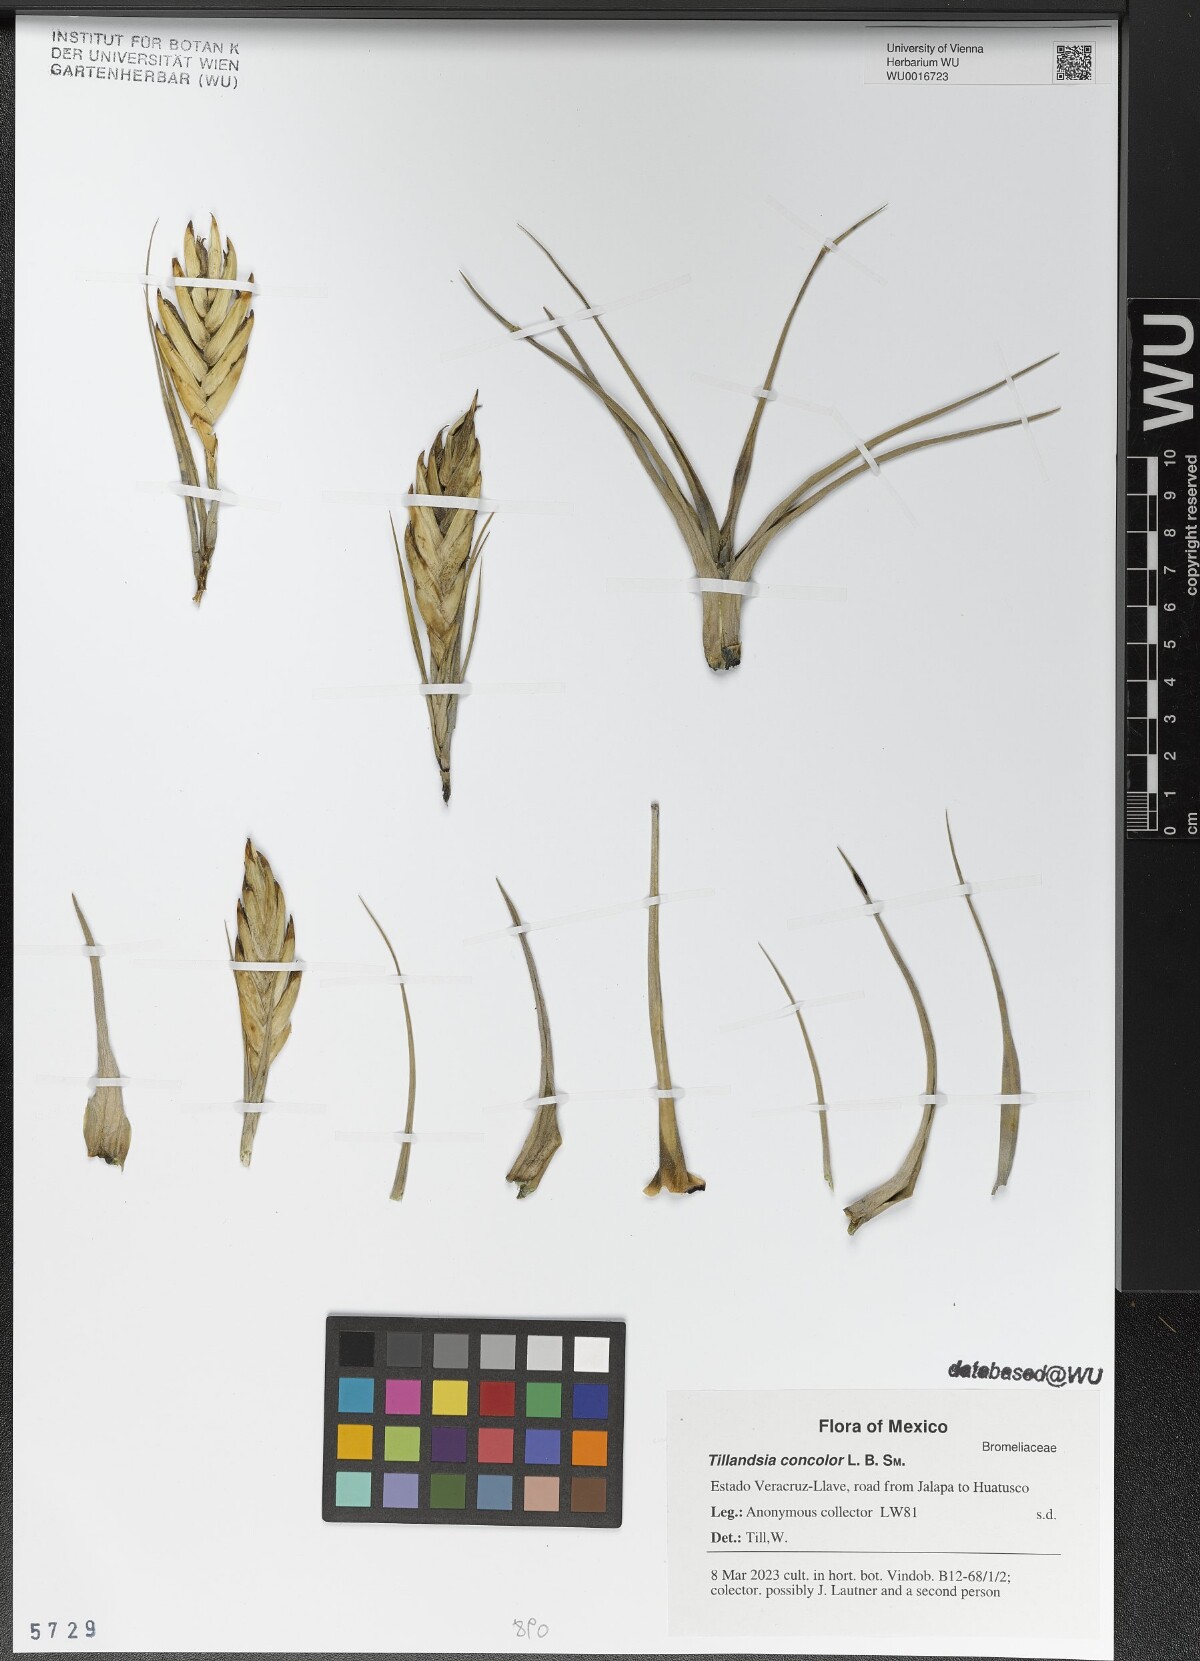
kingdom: Plantae
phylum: Tracheophyta
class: Liliopsida
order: Poales
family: Bromeliaceae
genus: Tillandsia
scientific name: Tillandsia concolor
